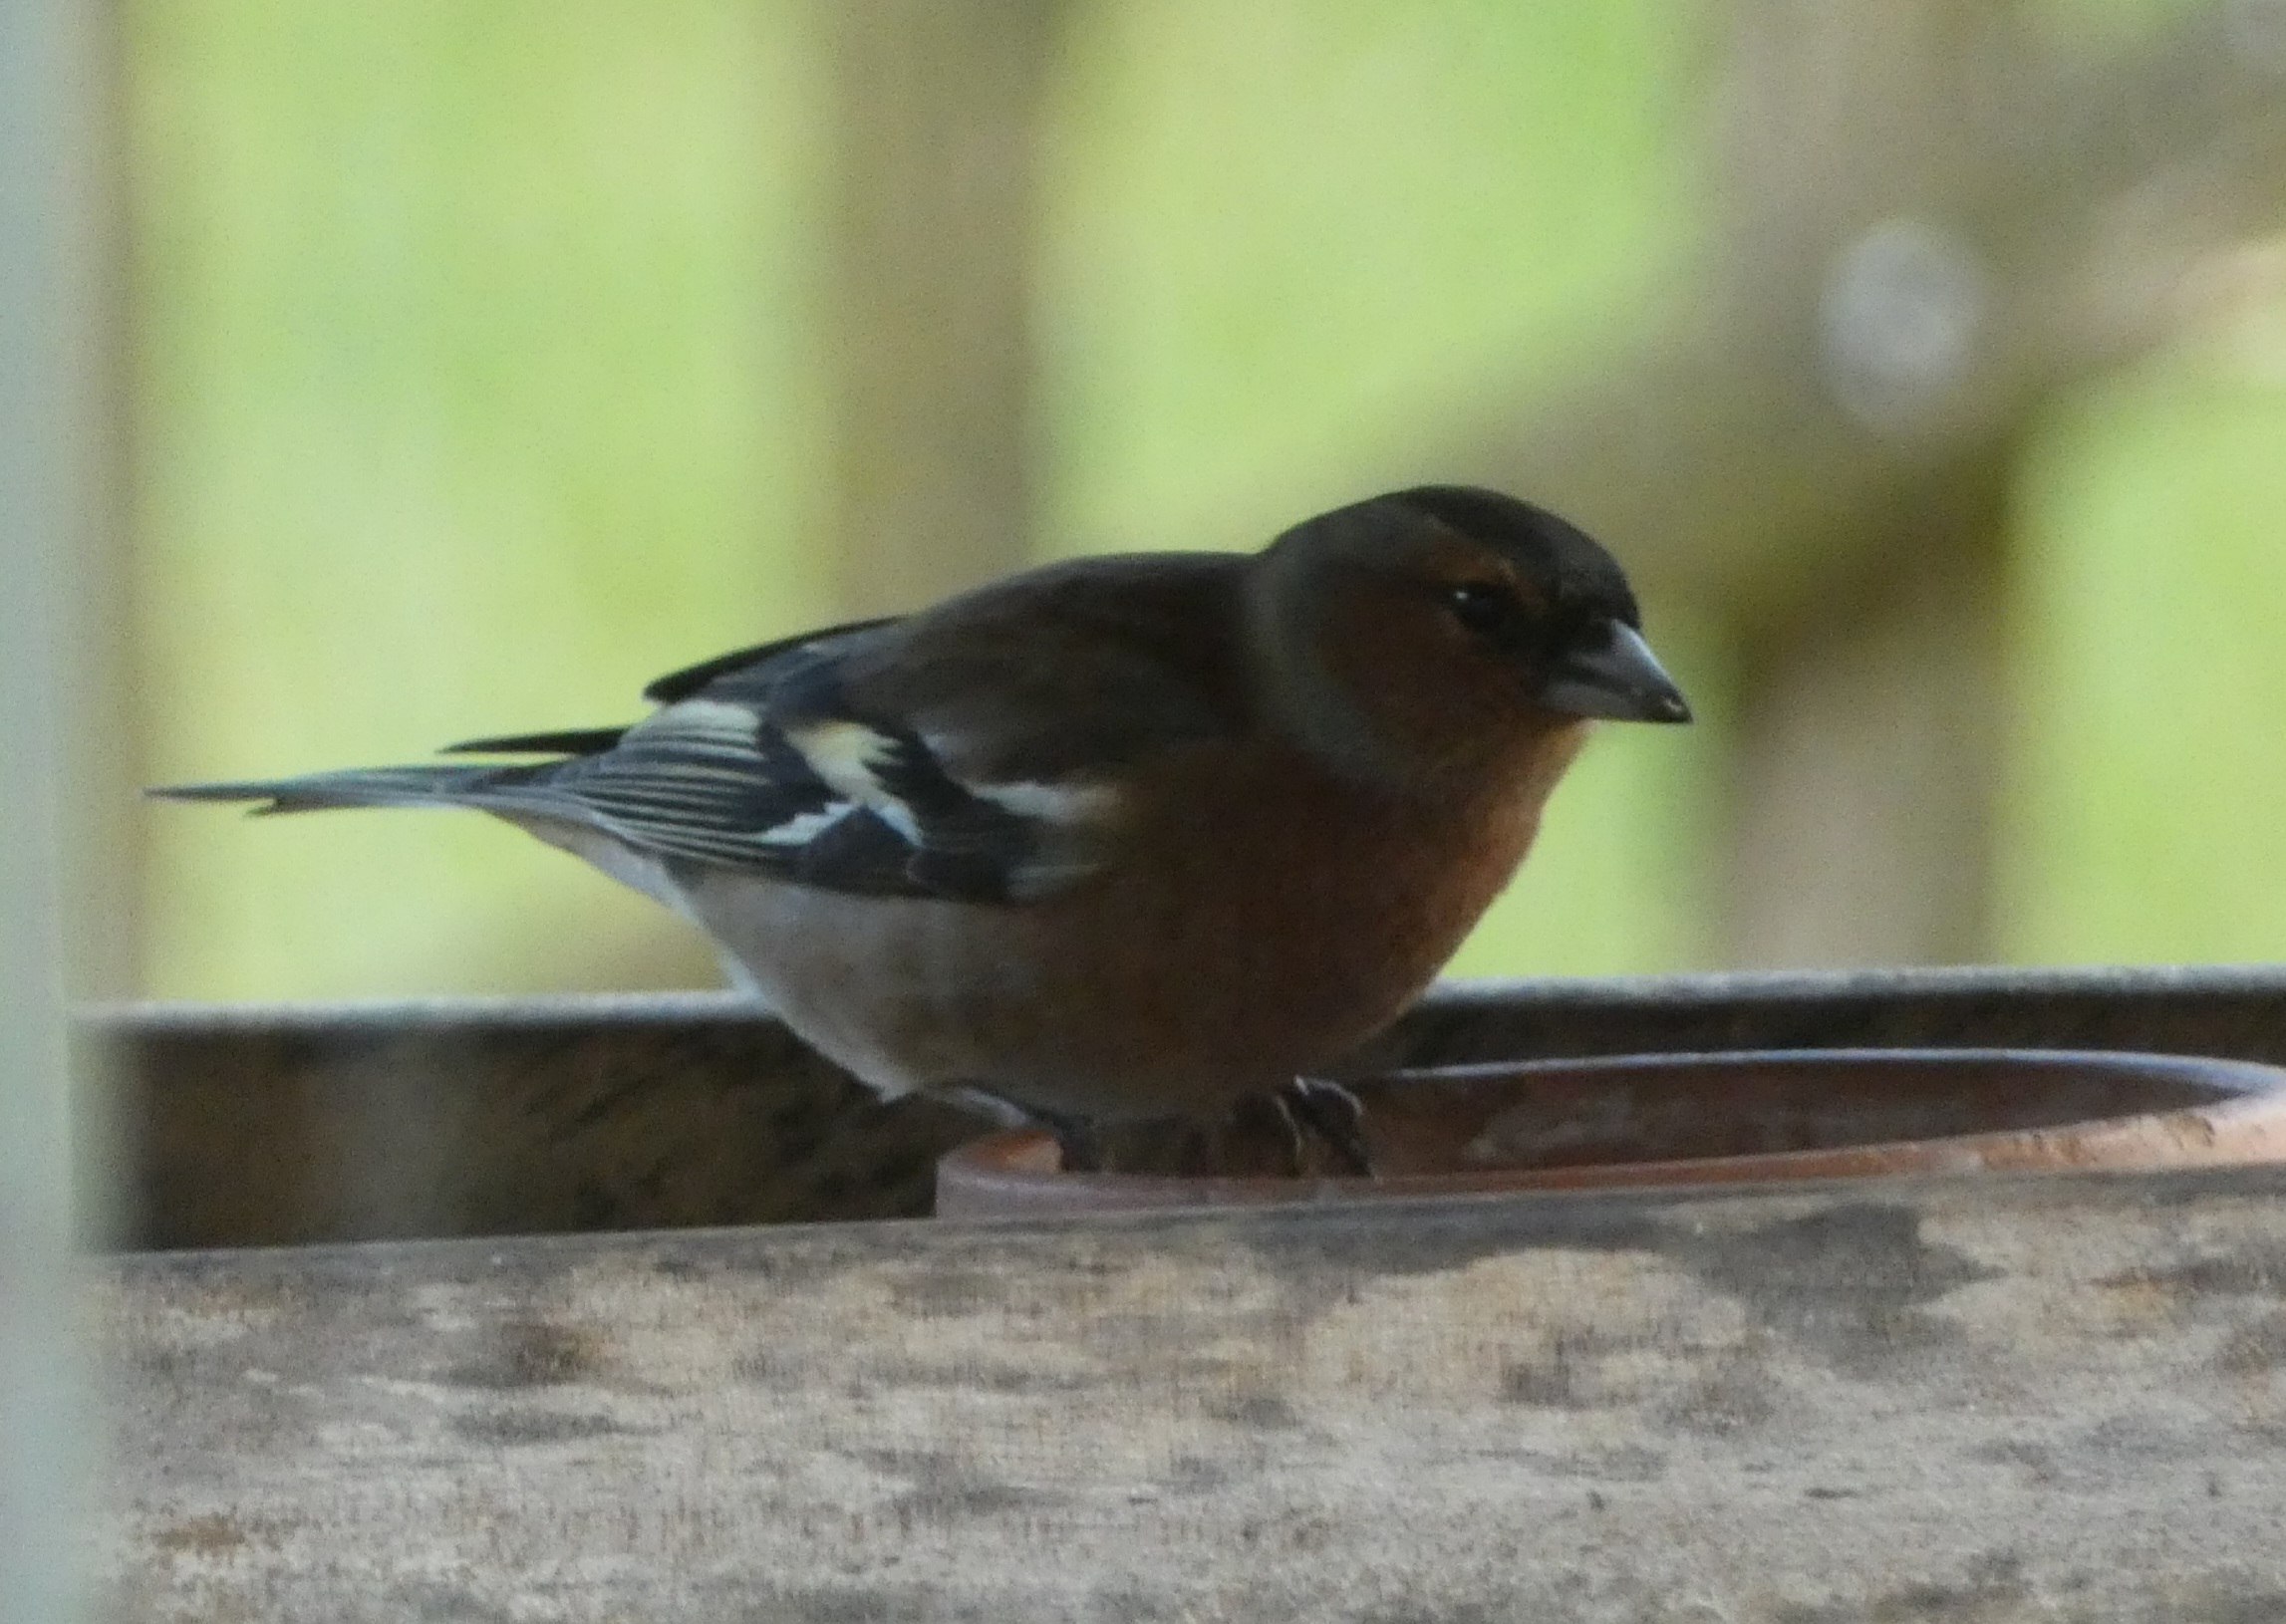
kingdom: Animalia
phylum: Chordata
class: Aves
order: Passeriformes
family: Fringillidae
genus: Fringilla
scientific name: Fringilla coelebs
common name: Bogfinke
